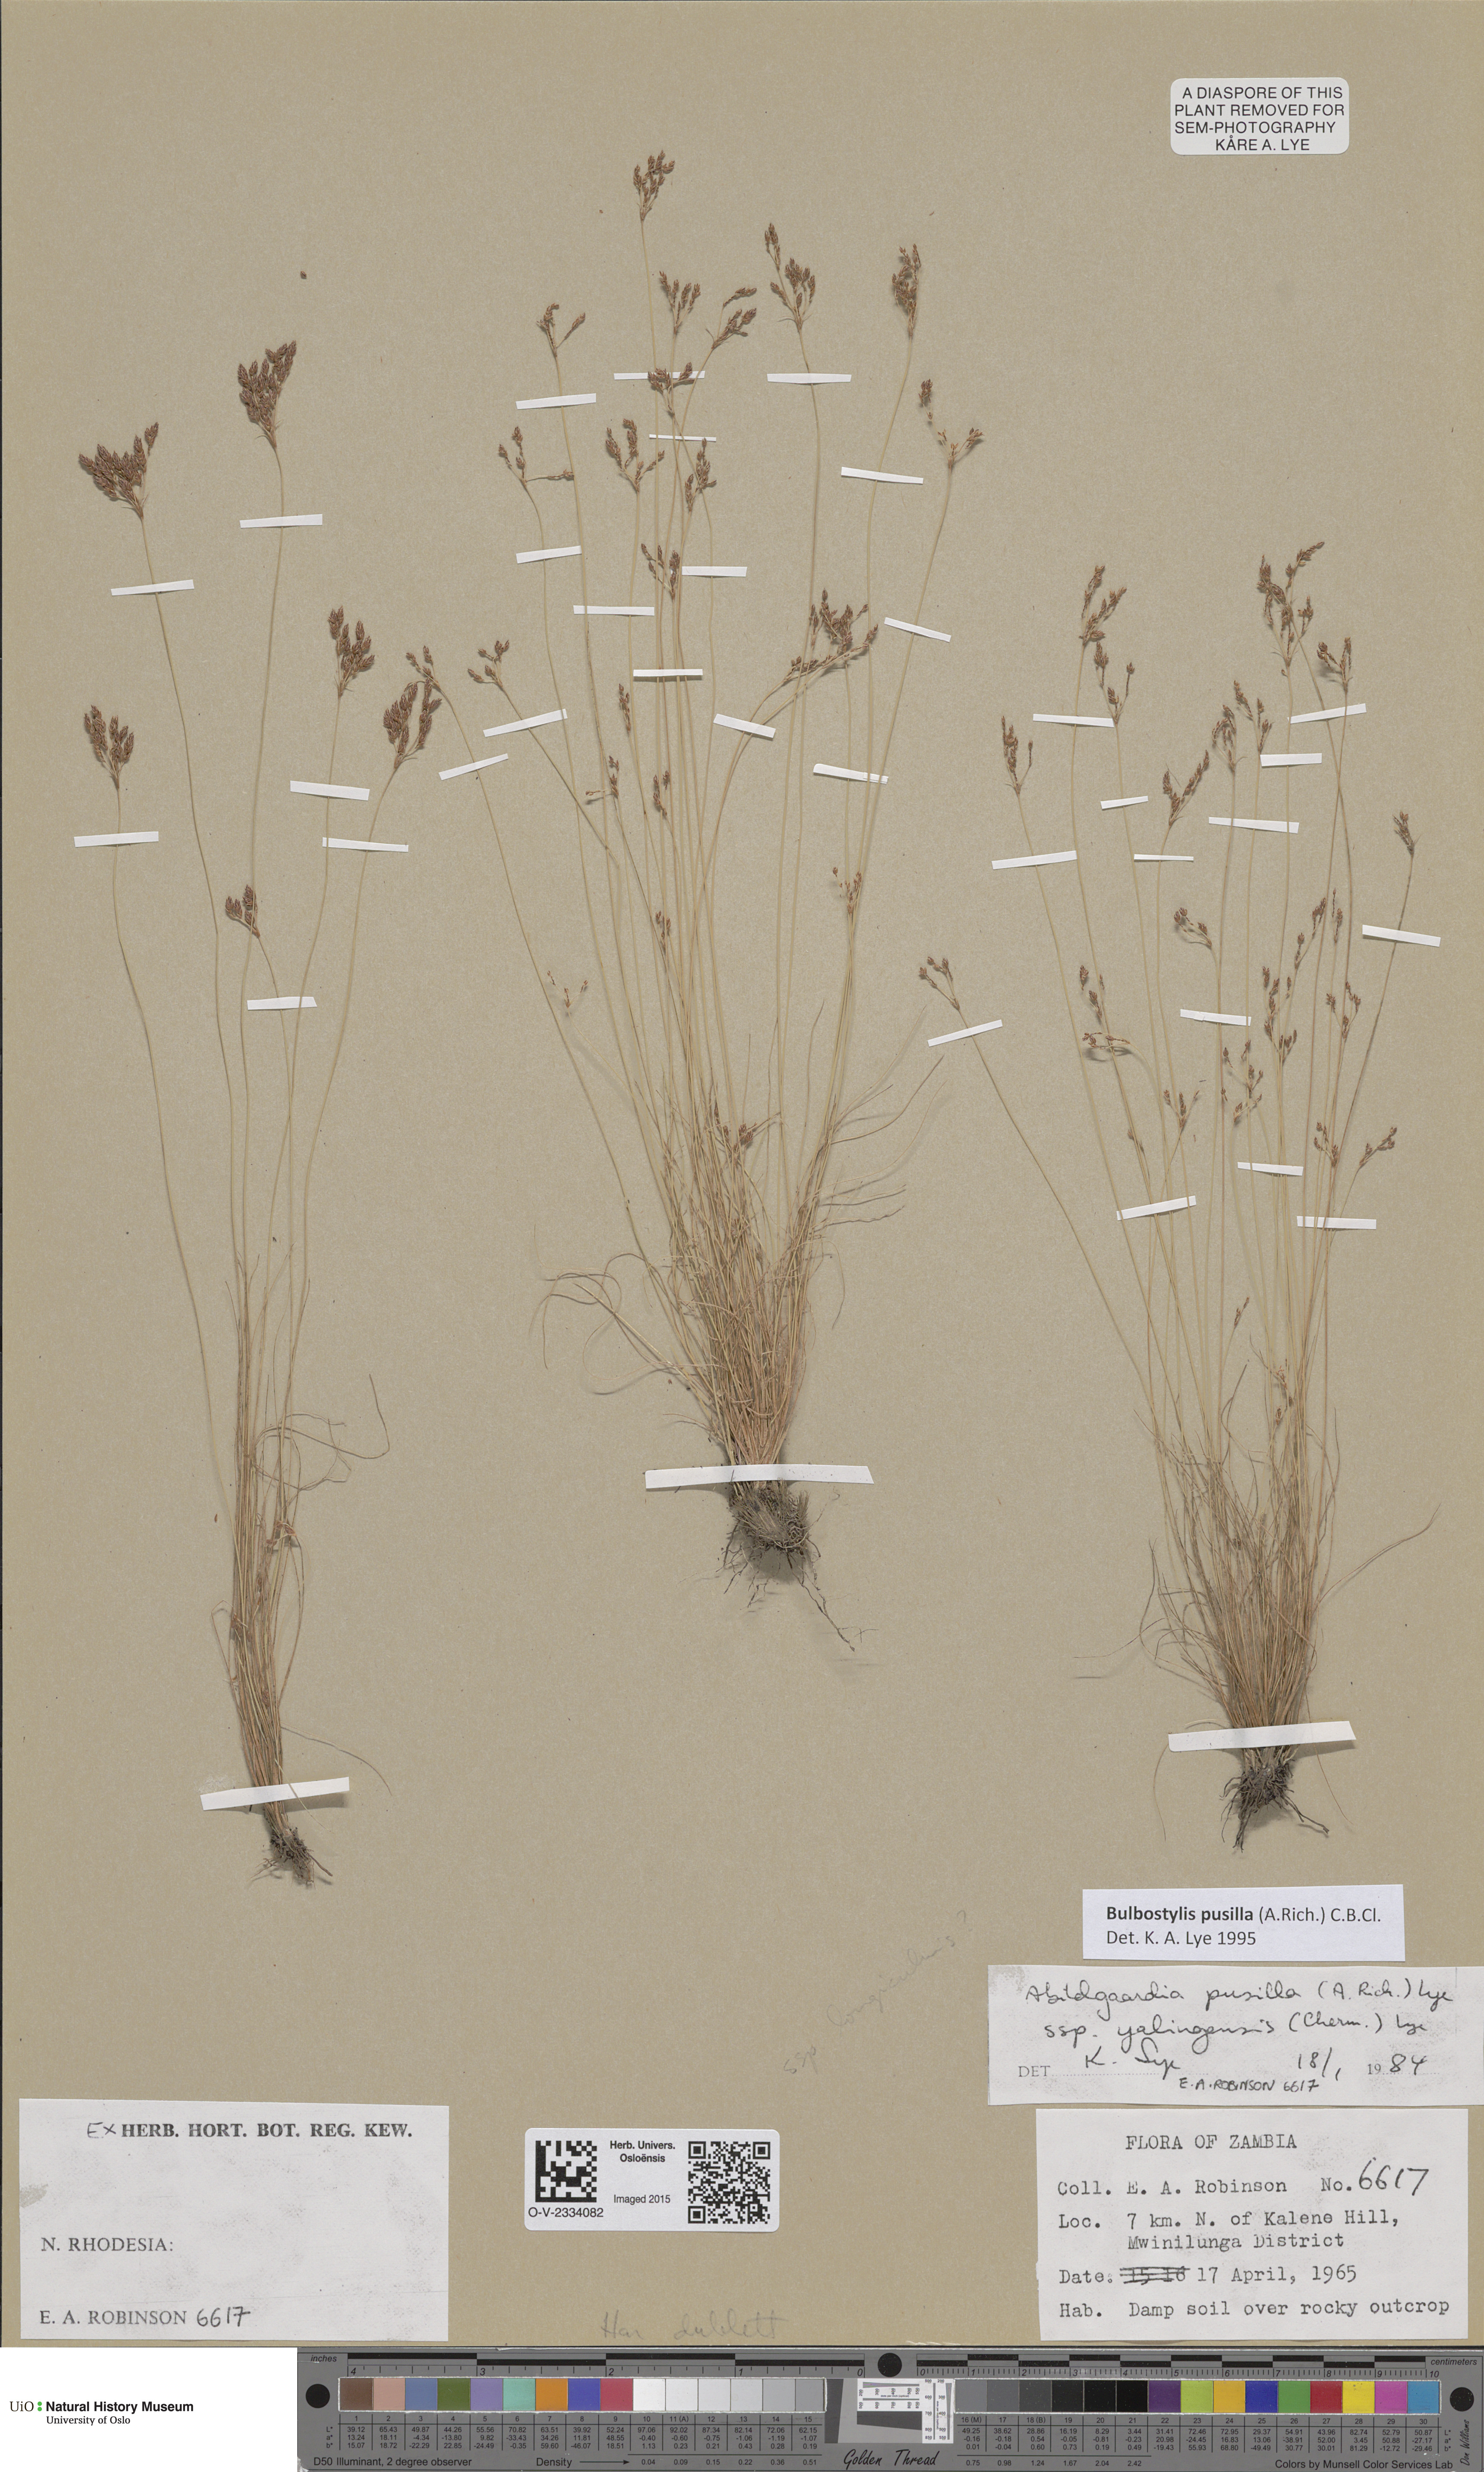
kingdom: Plantae
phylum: Tracheophyta
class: Liliopsida
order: Poales
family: Poaceae
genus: Poa
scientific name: Poa
